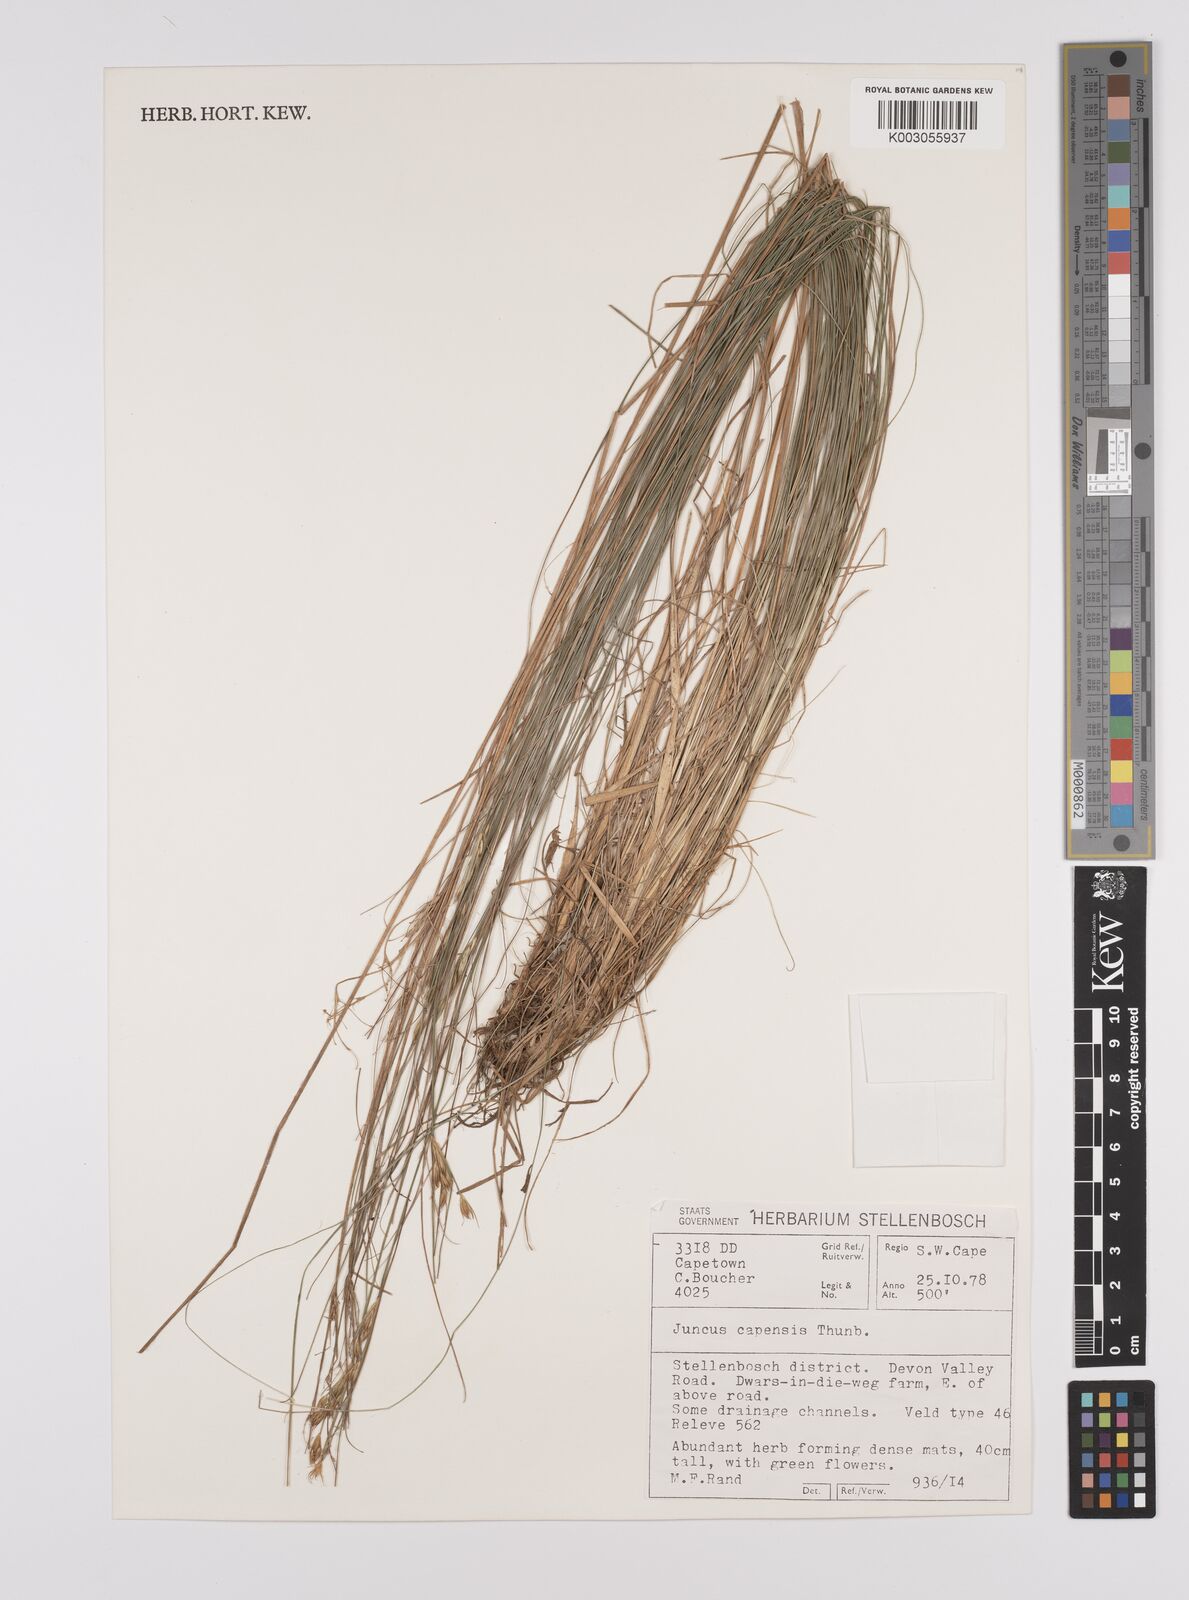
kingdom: Plantae
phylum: Tracheophyta
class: Liliopsida
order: Poales
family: Juncaceae
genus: Juncus
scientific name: Juncus capensis
